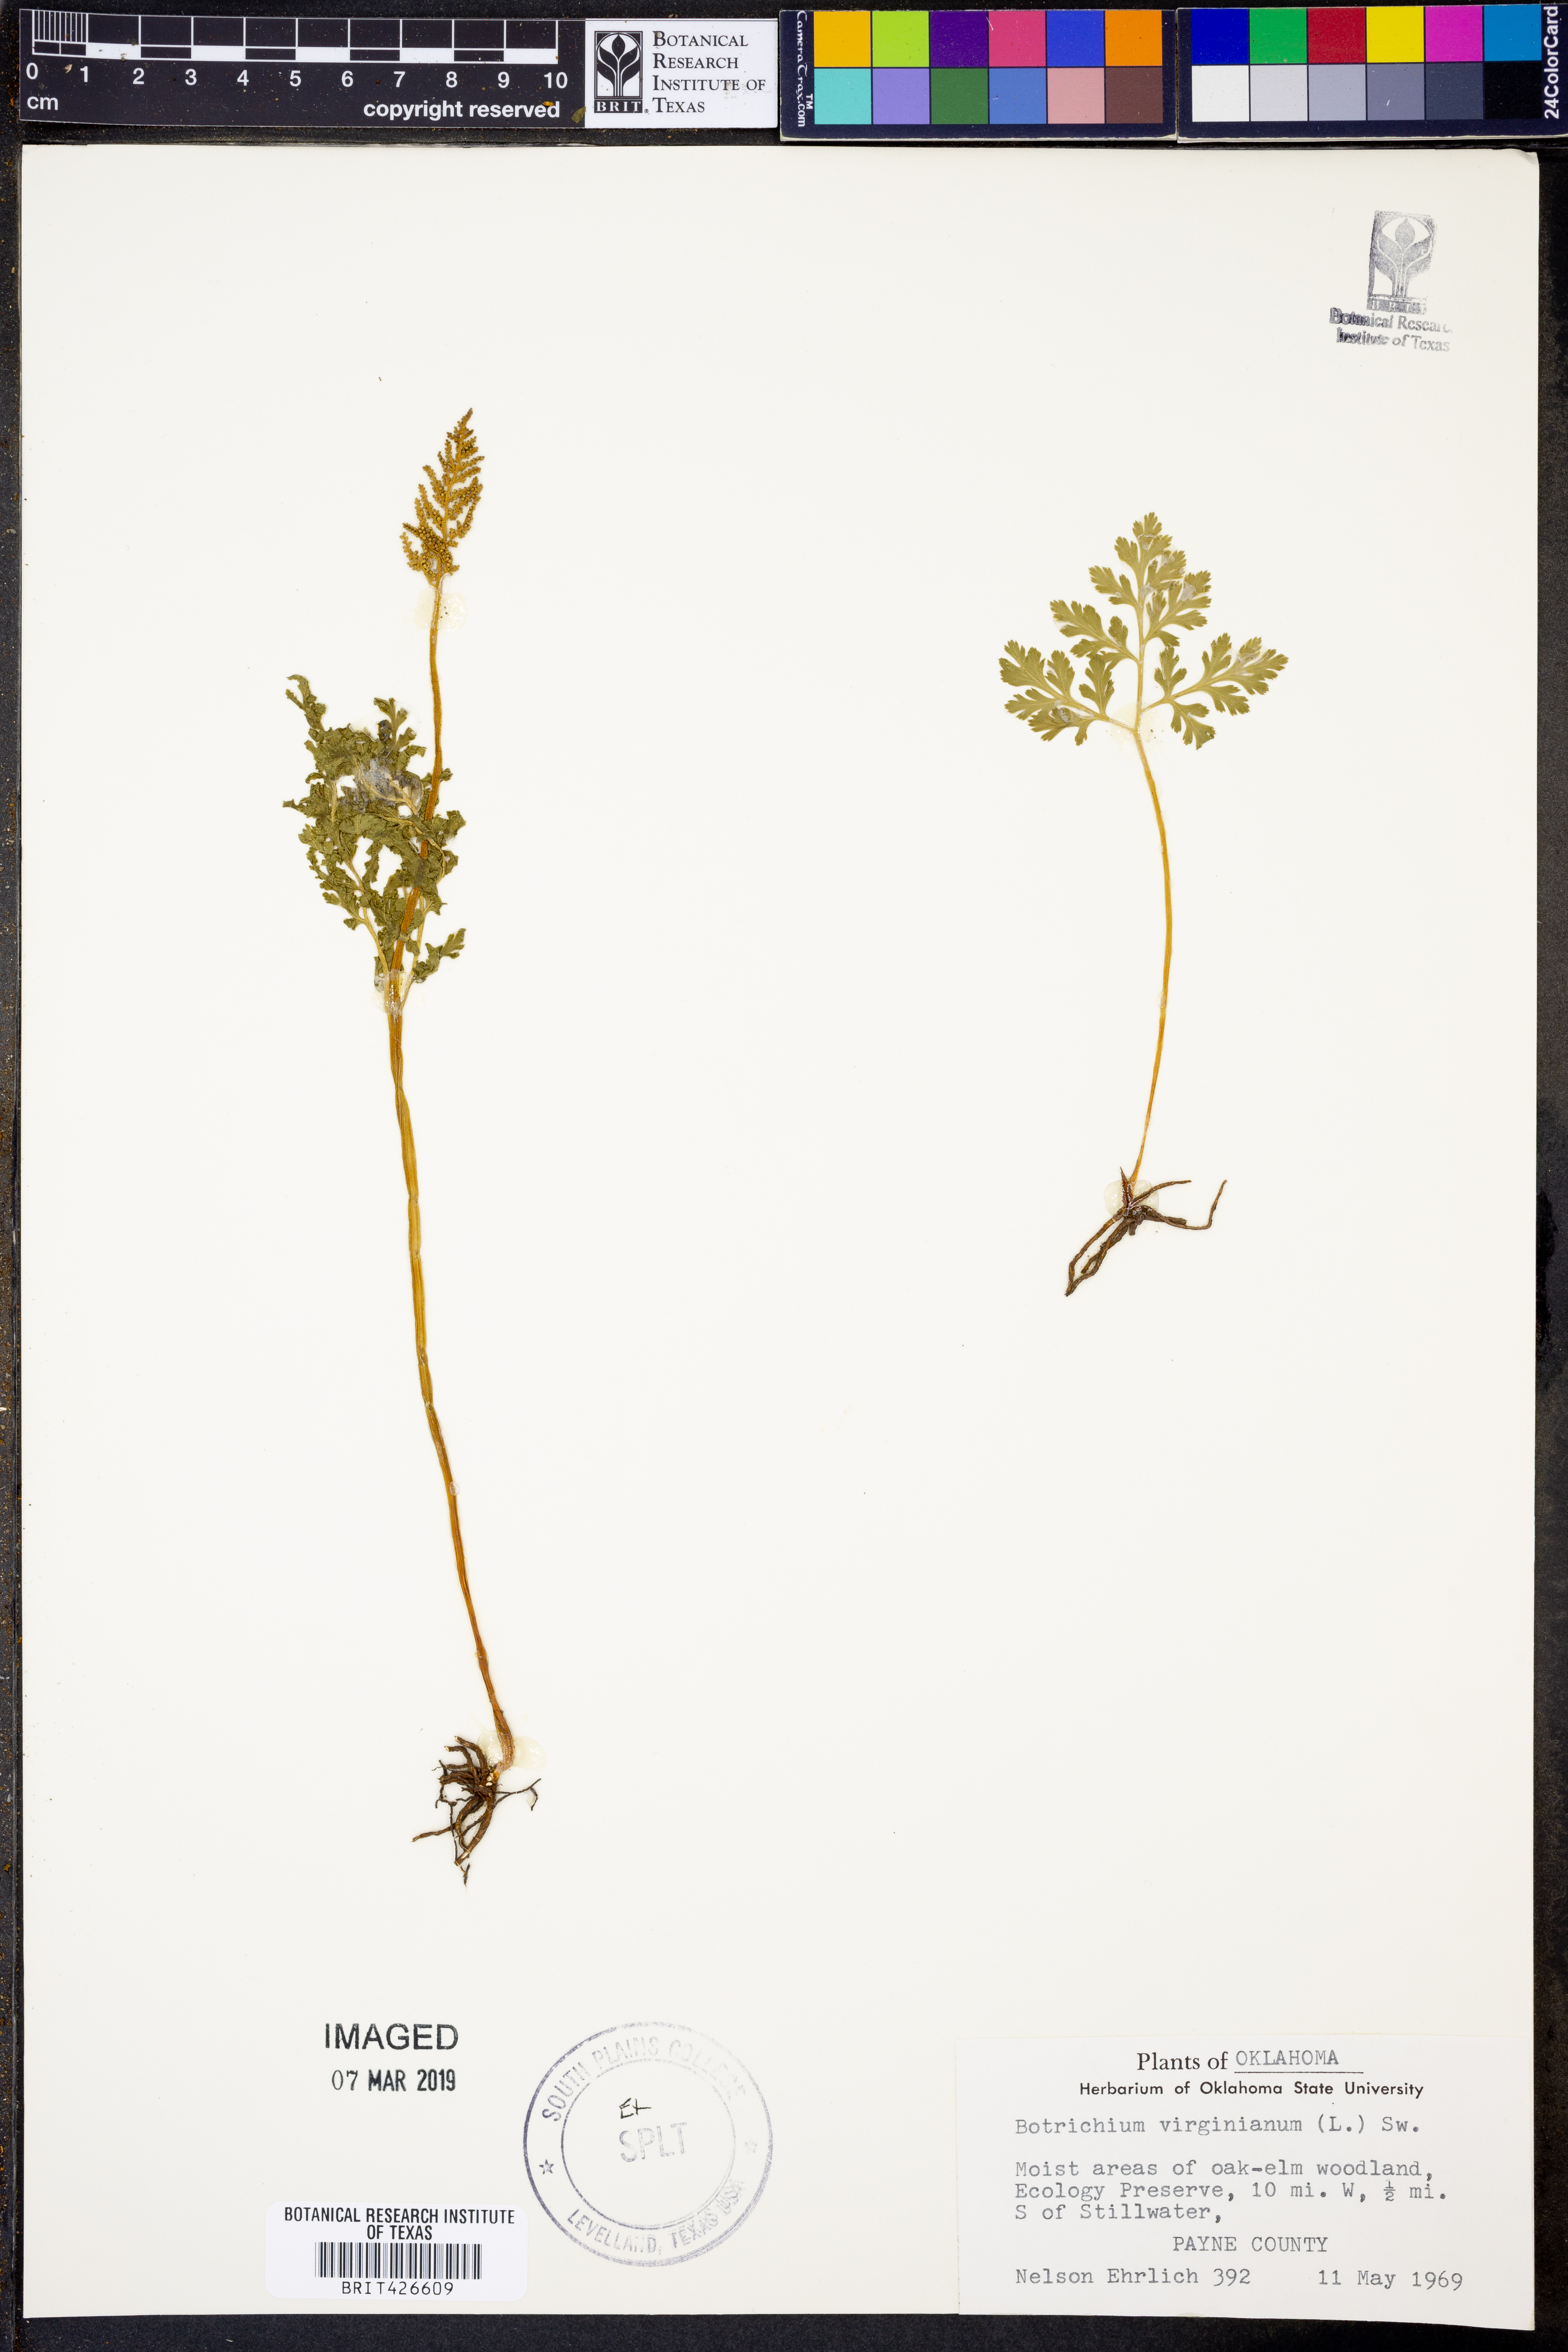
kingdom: Plantae
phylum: Tracheophyta
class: Polypodiopsida
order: Ophioglossales
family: Ophioglossaceae
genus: Botrypus
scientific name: Botrypus virginianus
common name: Common grapefern
